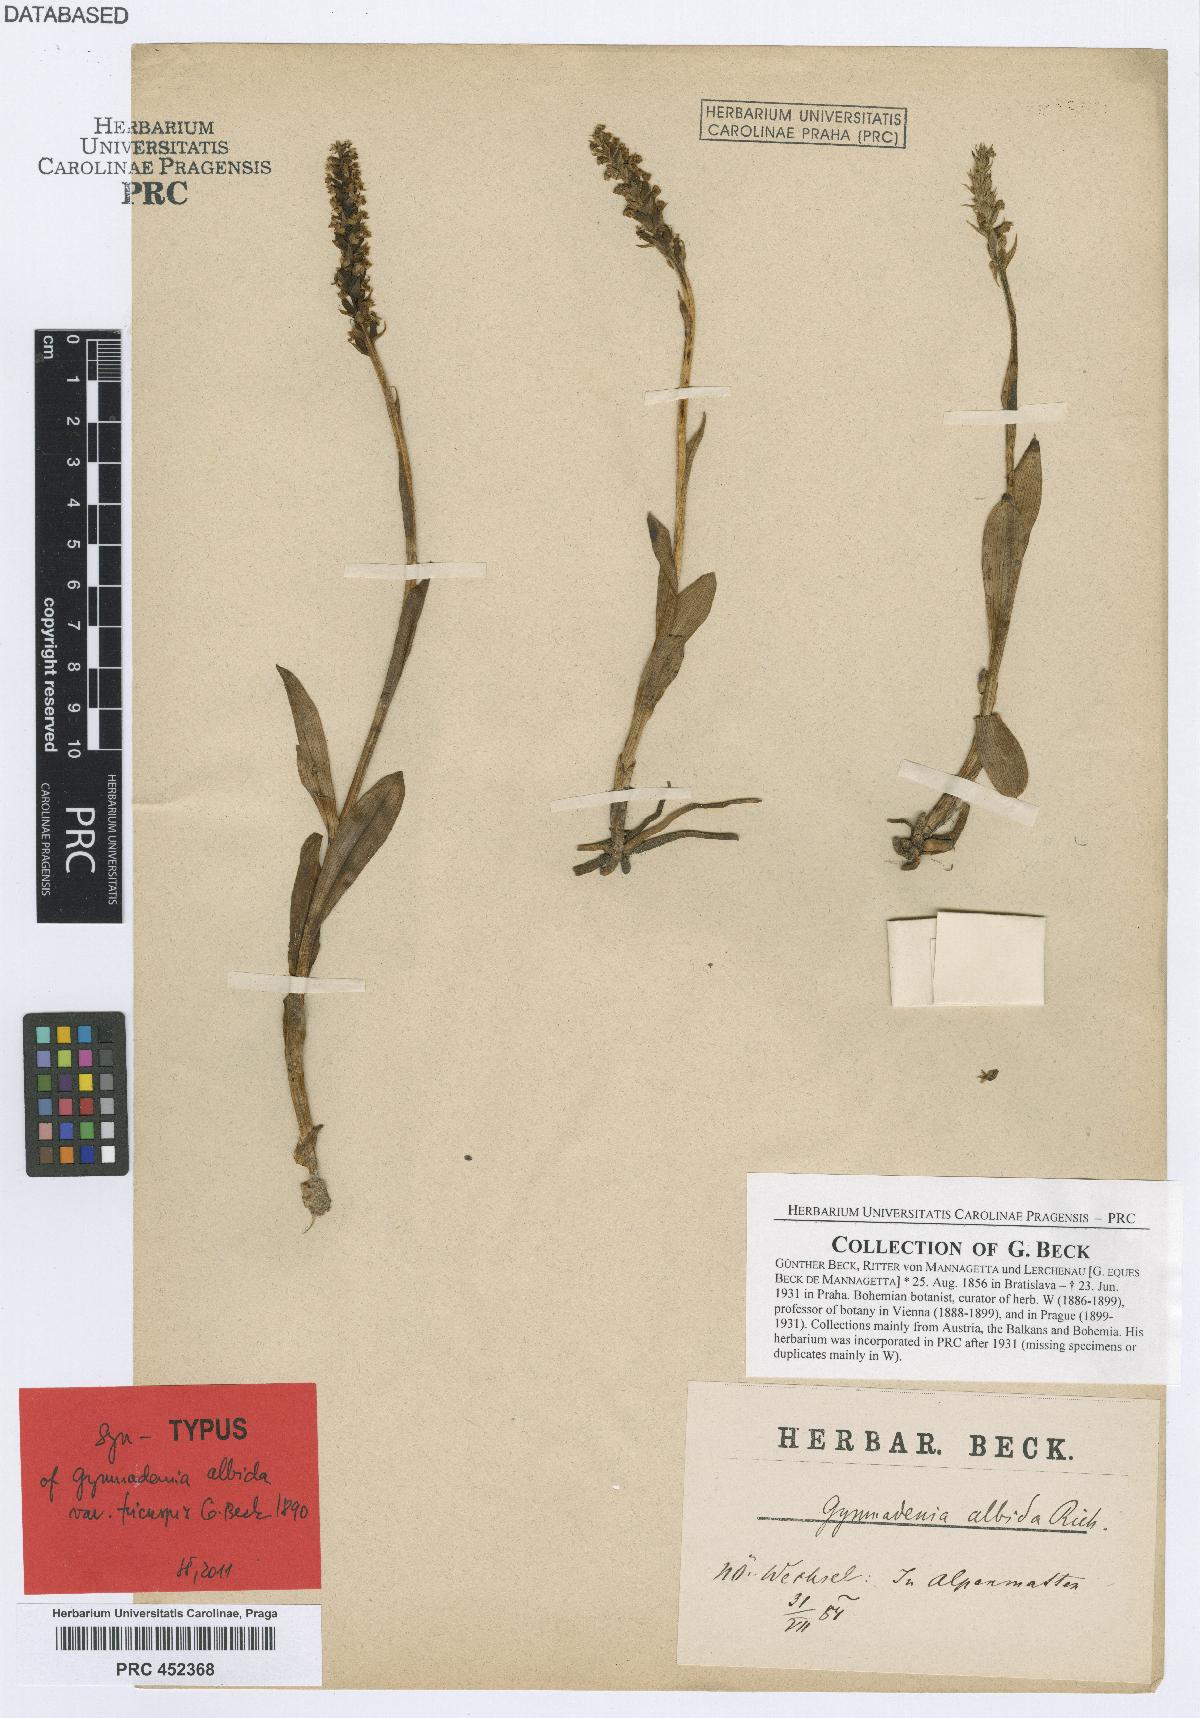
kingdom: Plantae
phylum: Tracheophyta
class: Liliopsida
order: Asparagales
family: Orchidaceae
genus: Pseudorchis
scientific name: Pseudorchis albida
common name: Small-white orchid
